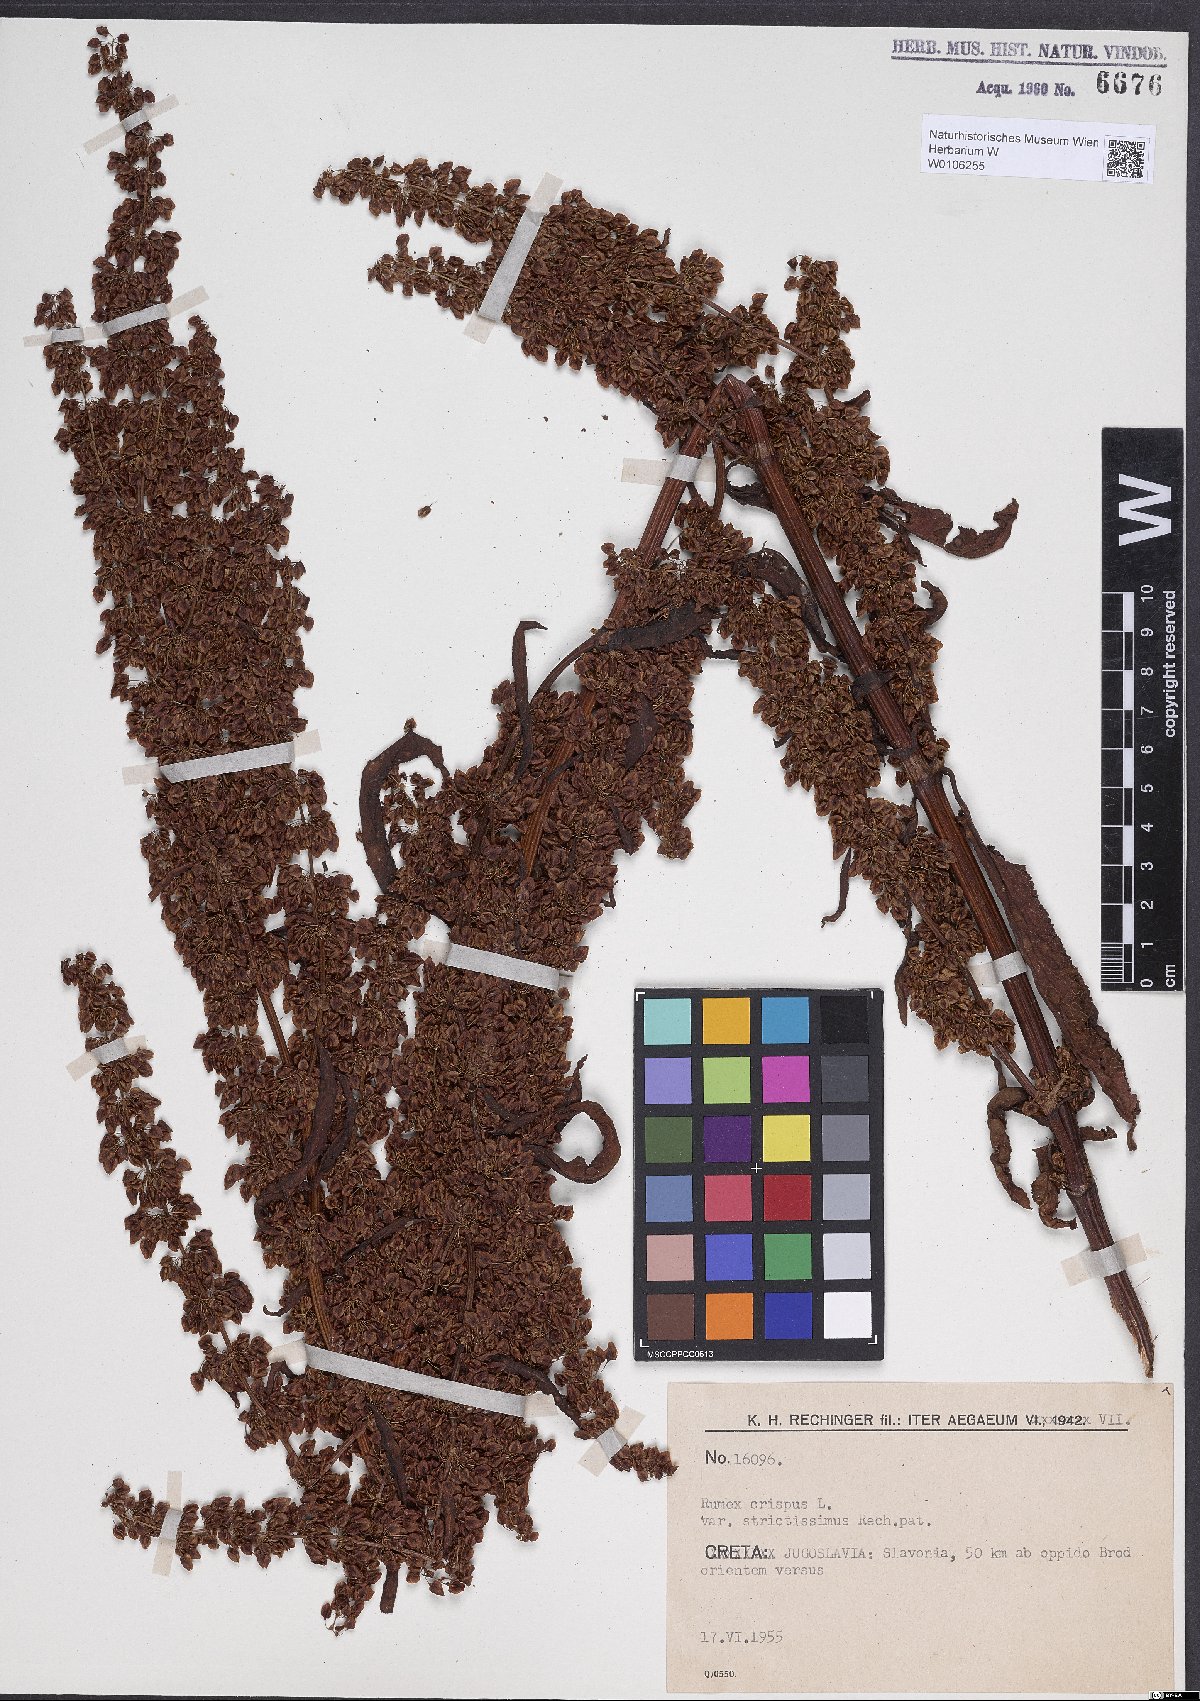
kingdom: Plantae
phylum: Tracheophyta
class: Magnoliopsida
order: Caryophyllales
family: Polygonaceae
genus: Rumex
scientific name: Rumex crispus
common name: Curled dock
